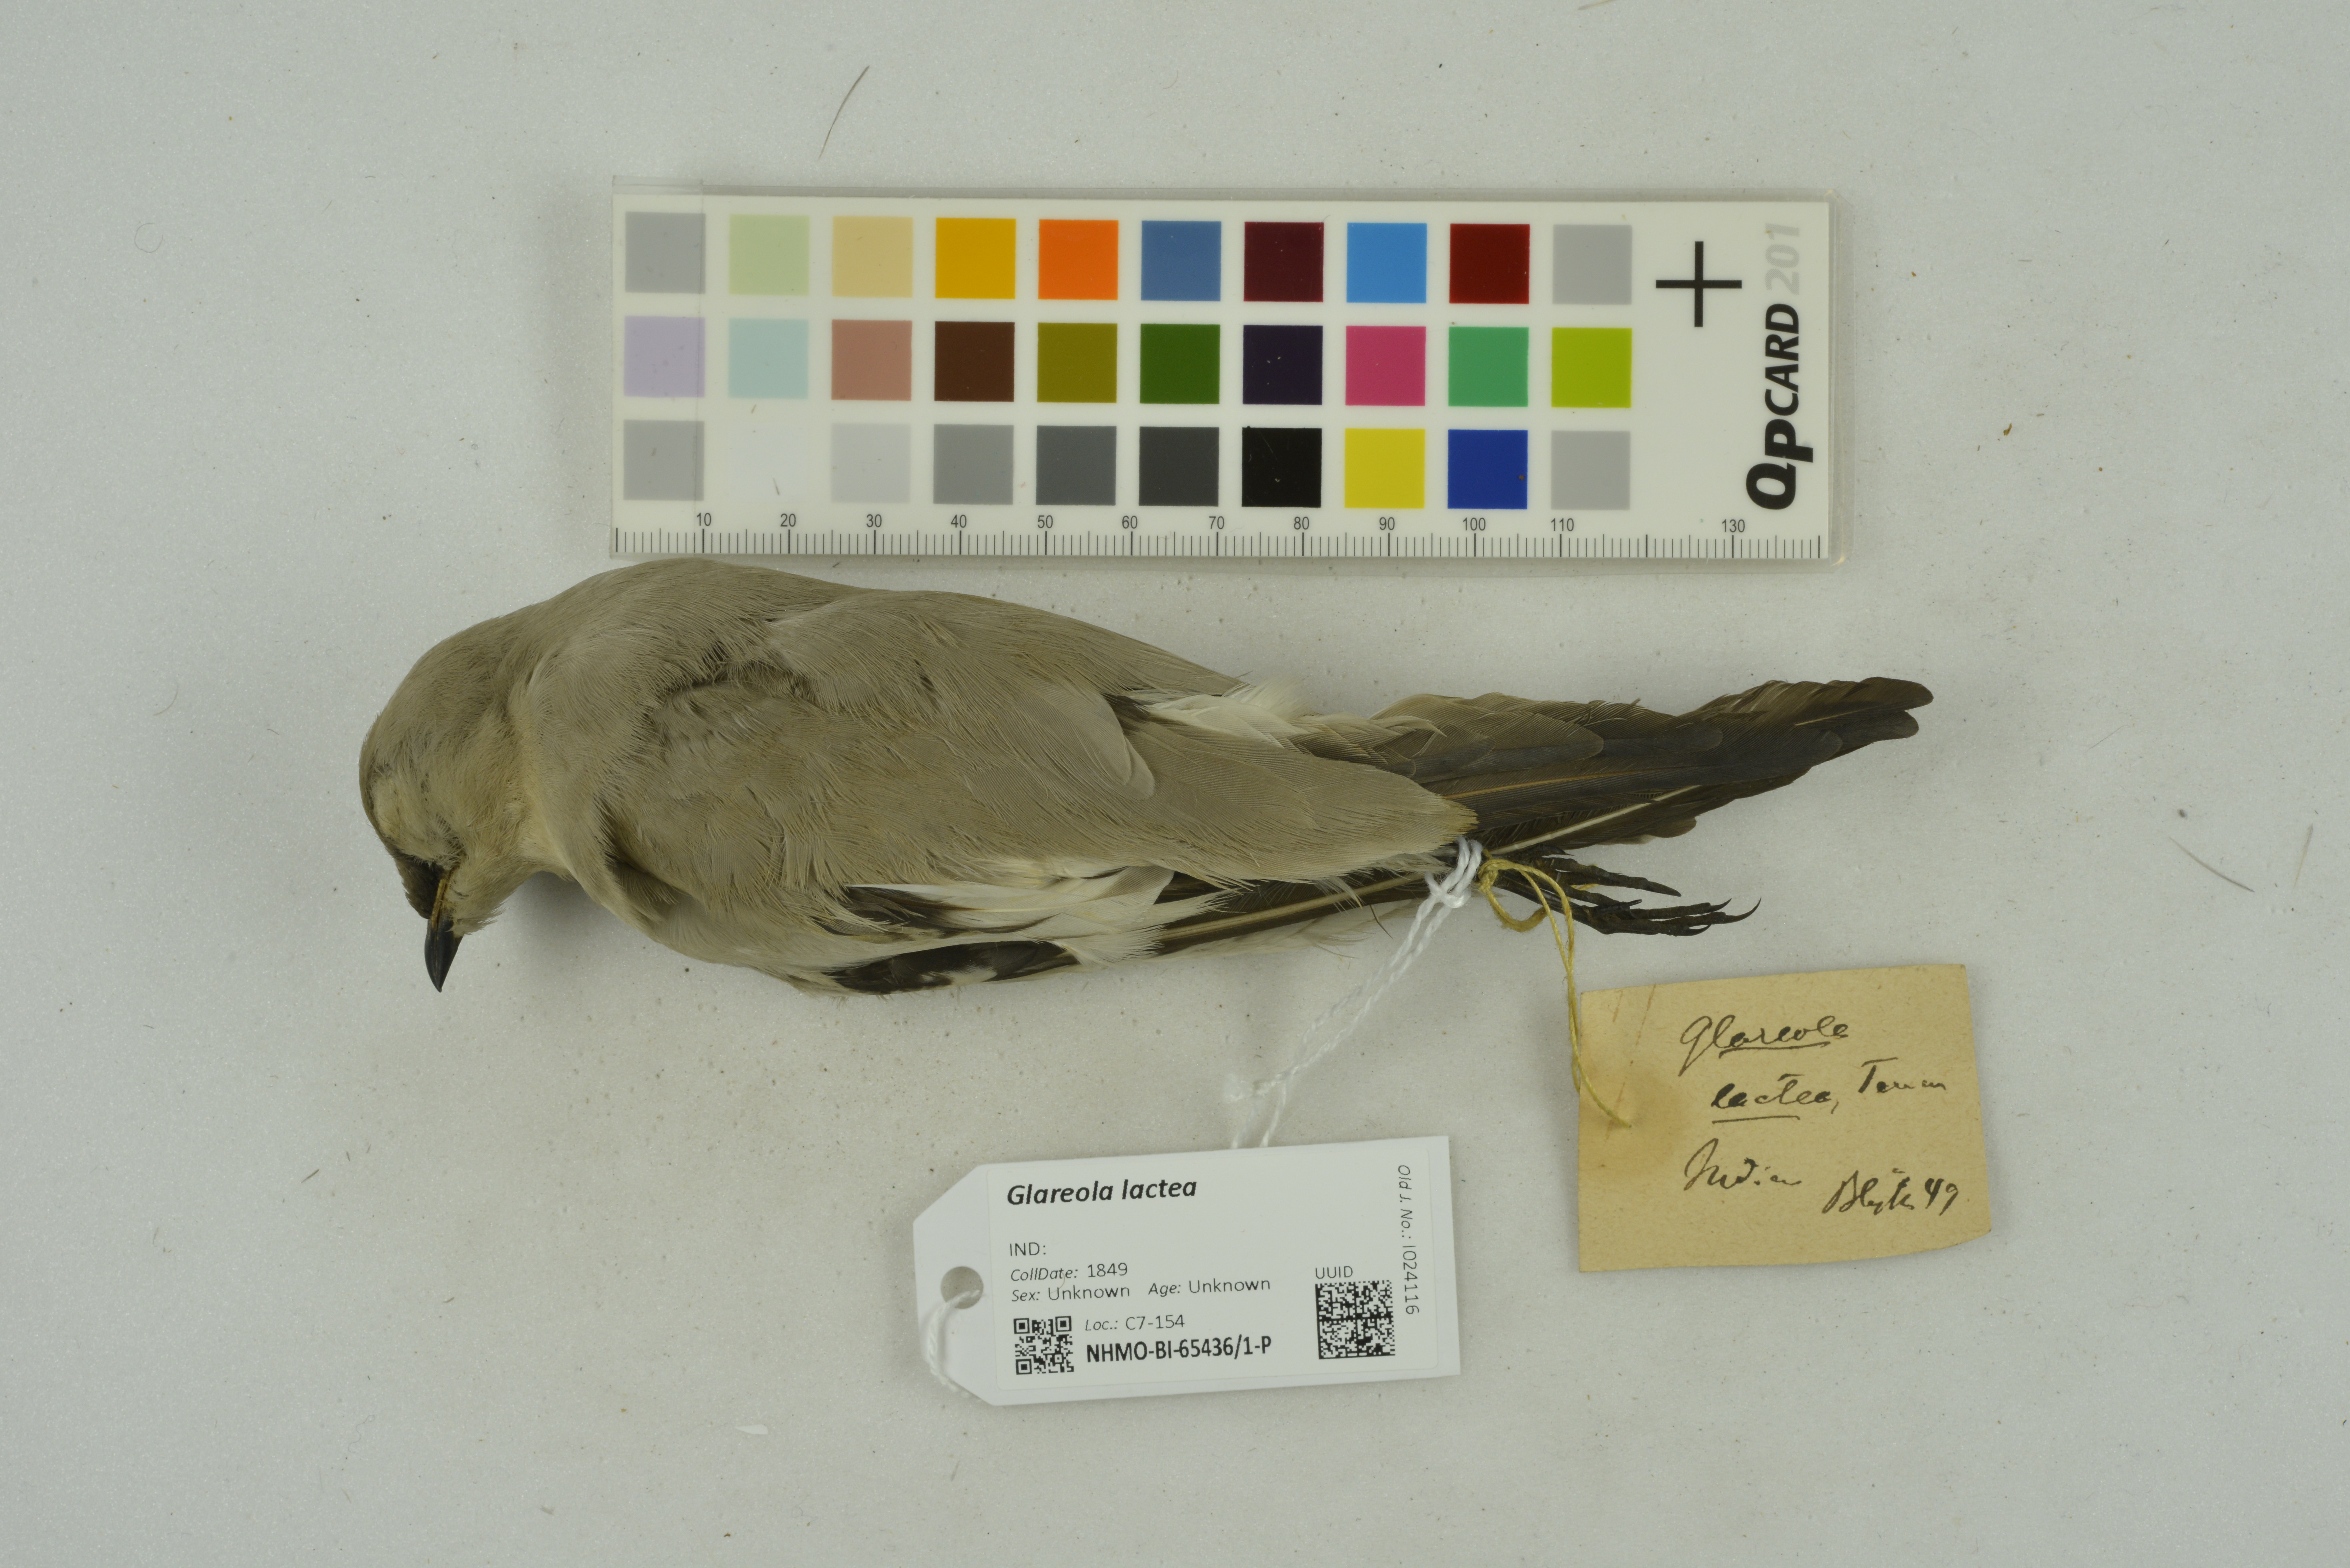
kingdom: Animalia
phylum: Chordata
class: Aves
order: Charadriiformes
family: Glareolidae
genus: Glareola
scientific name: Glareola lactea
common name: Small pratincole
